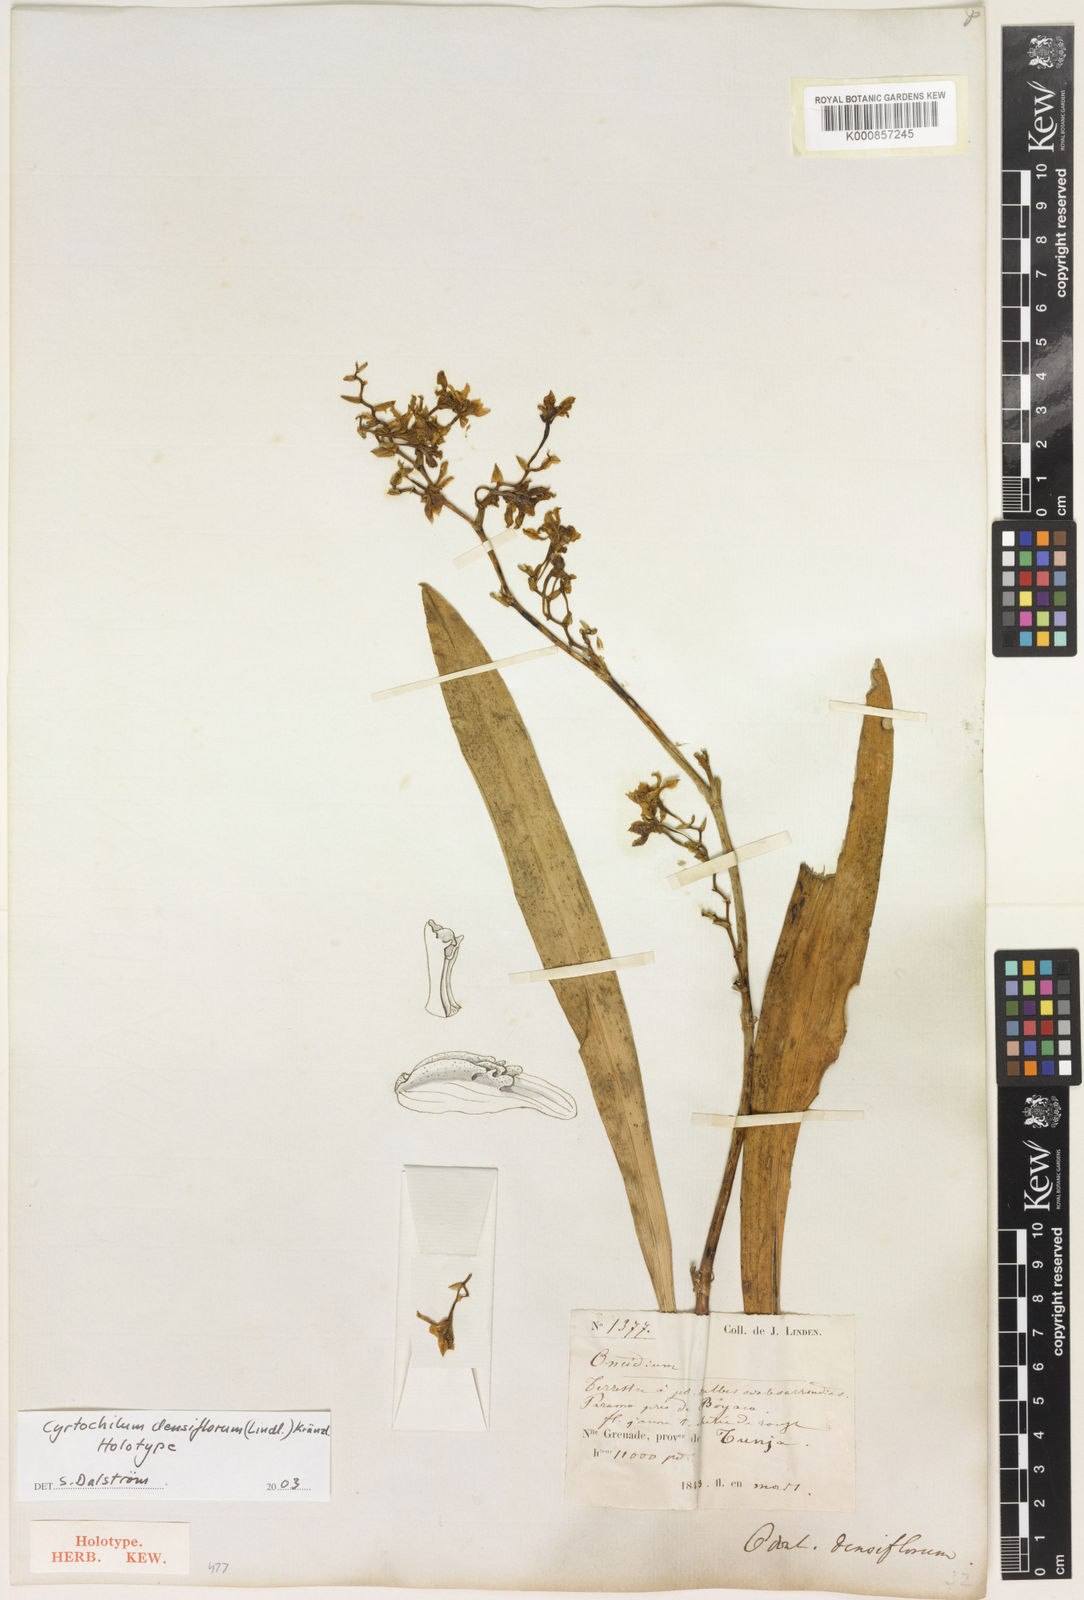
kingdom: Plantae
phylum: Tracheophyta
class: Liliopsida
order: Asparagales
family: Orchidaceae
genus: Cyrtochilum
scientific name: Cyrtochilum densiflorum
